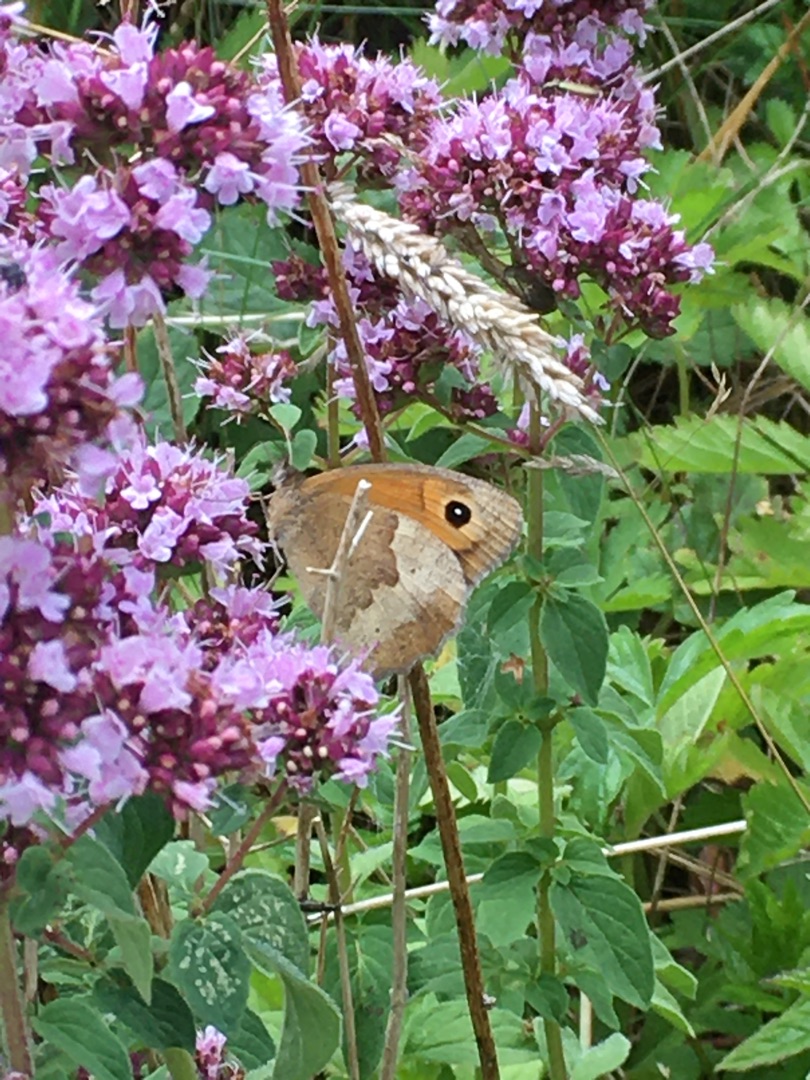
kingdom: Animalia
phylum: Arthropoda
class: Insecta
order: Lepidoptera
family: Nymphalidae
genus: Maniola
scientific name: Maniola jurtina
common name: Græsrandøje
